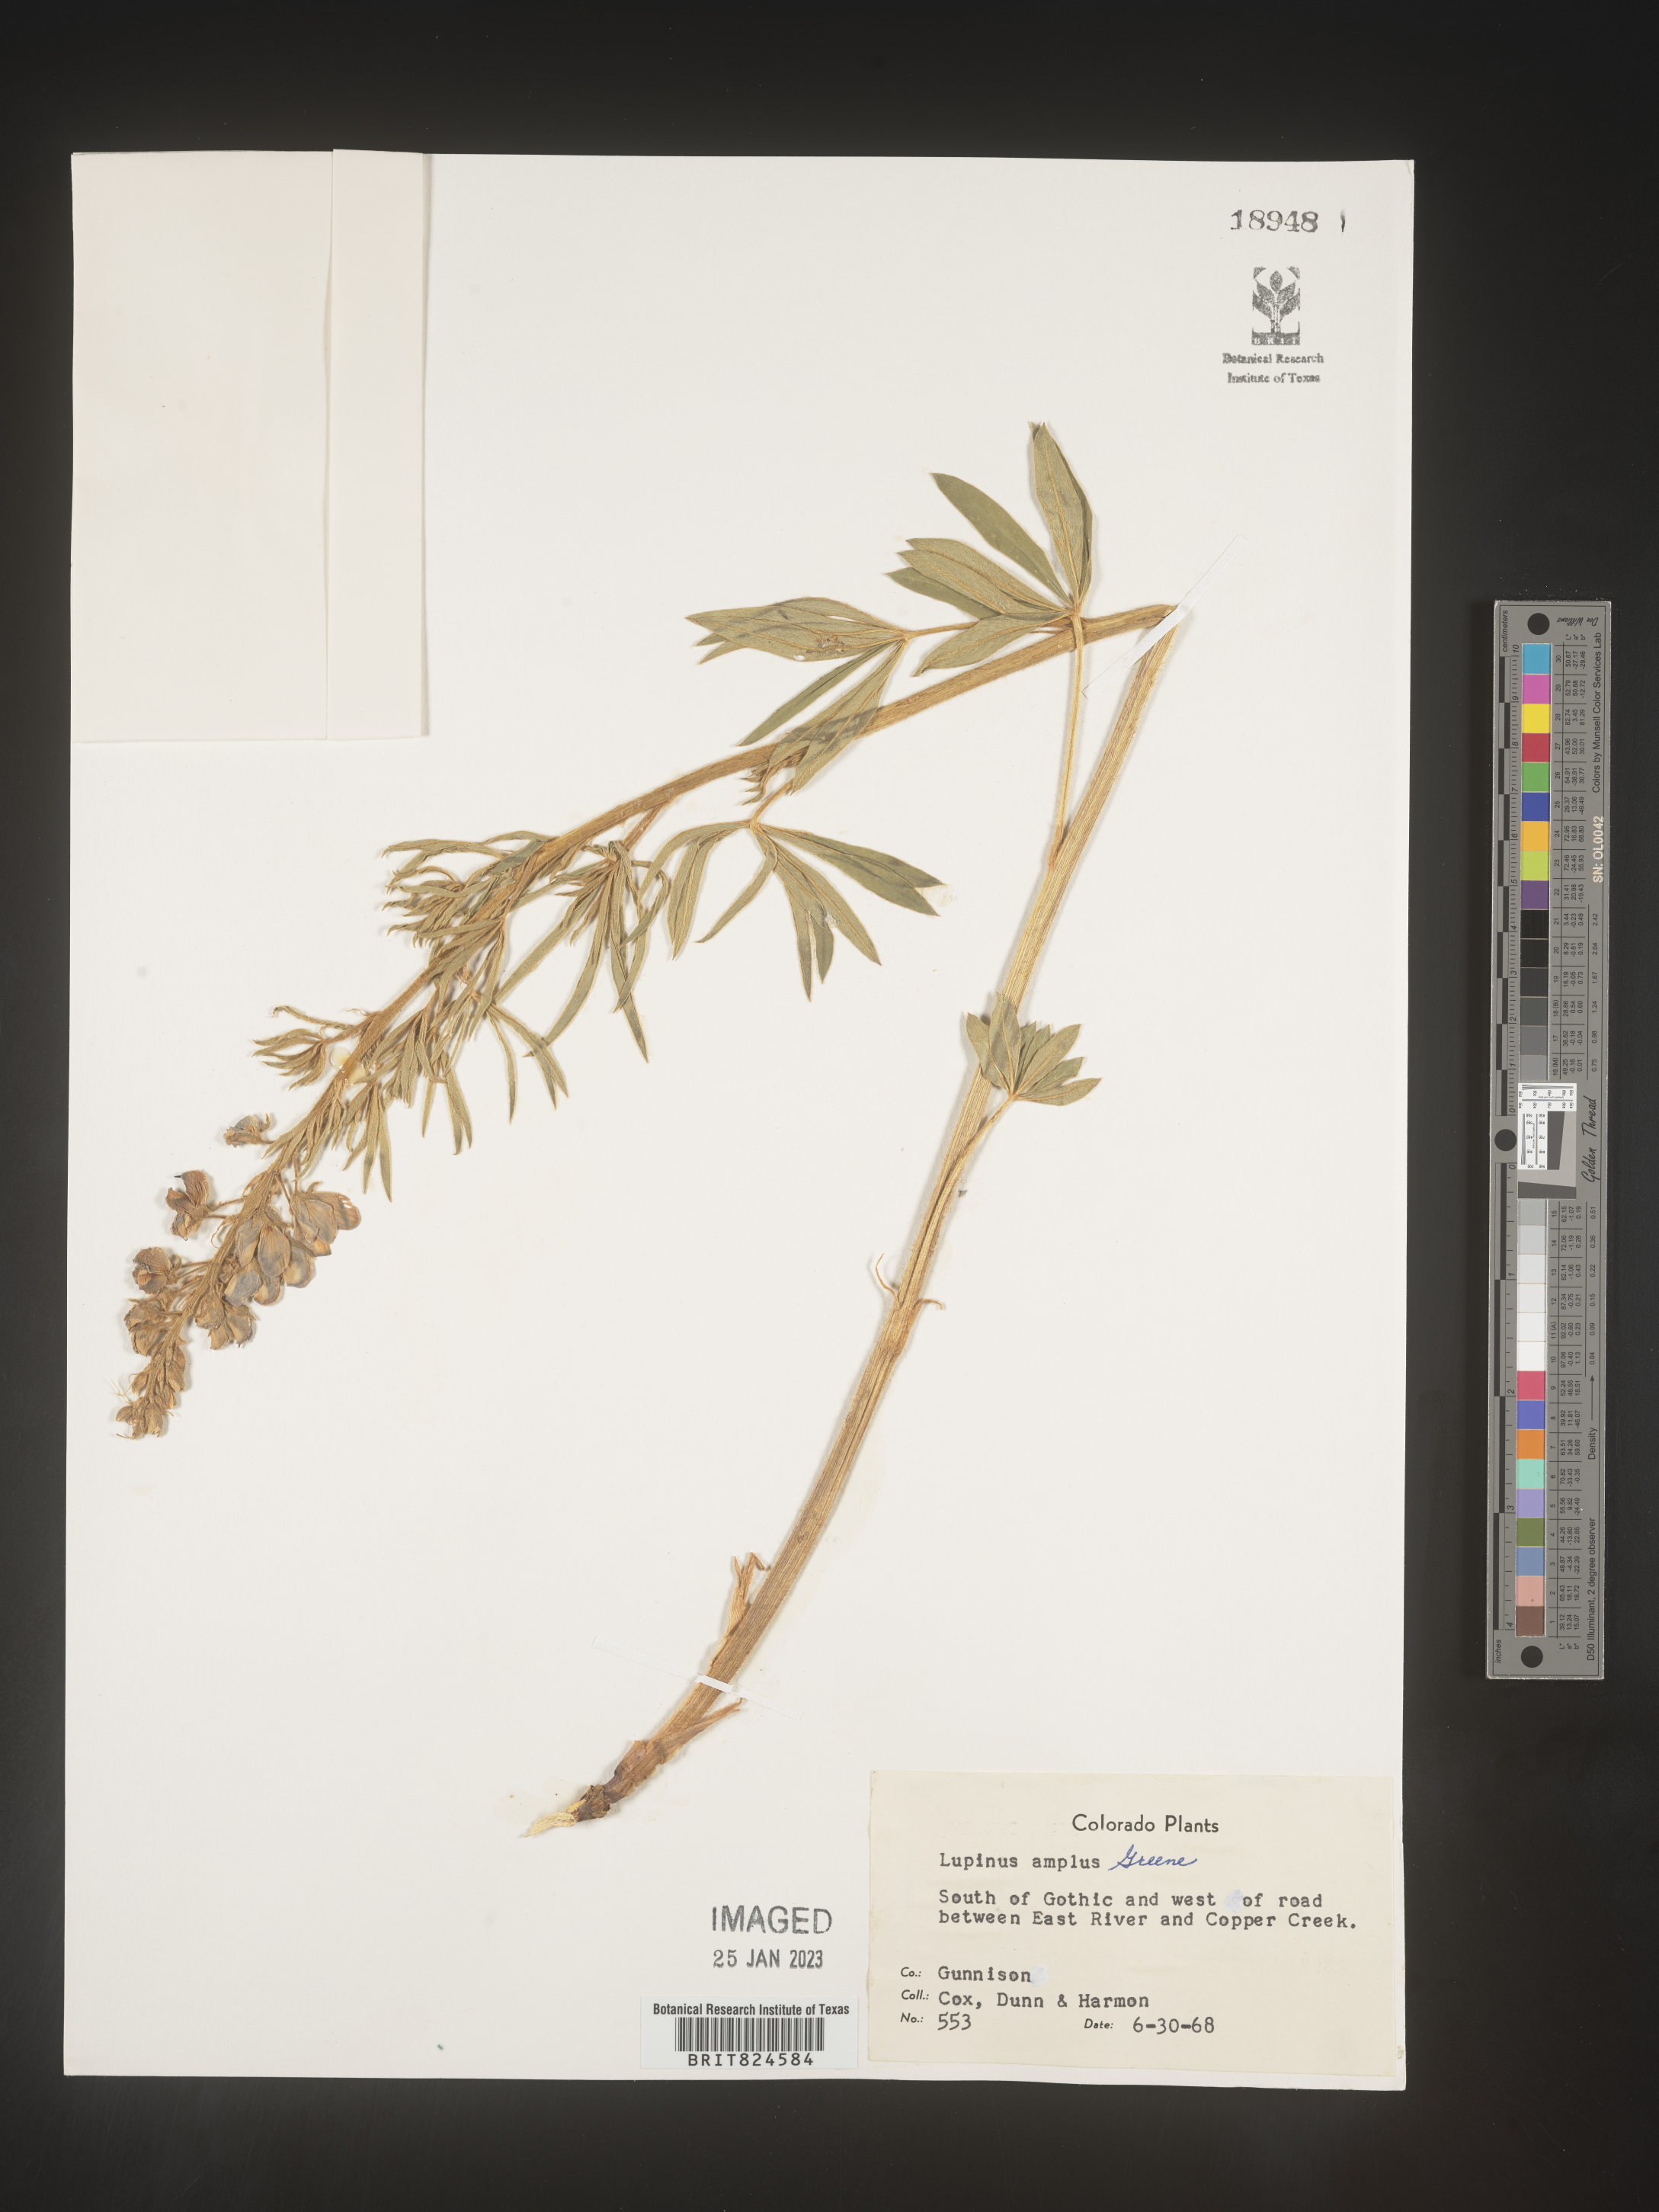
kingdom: Plantae
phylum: Tracheophyta
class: Magnoliopsida
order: Fabales
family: Fabaceae
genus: Lupinus
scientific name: Lupinus
